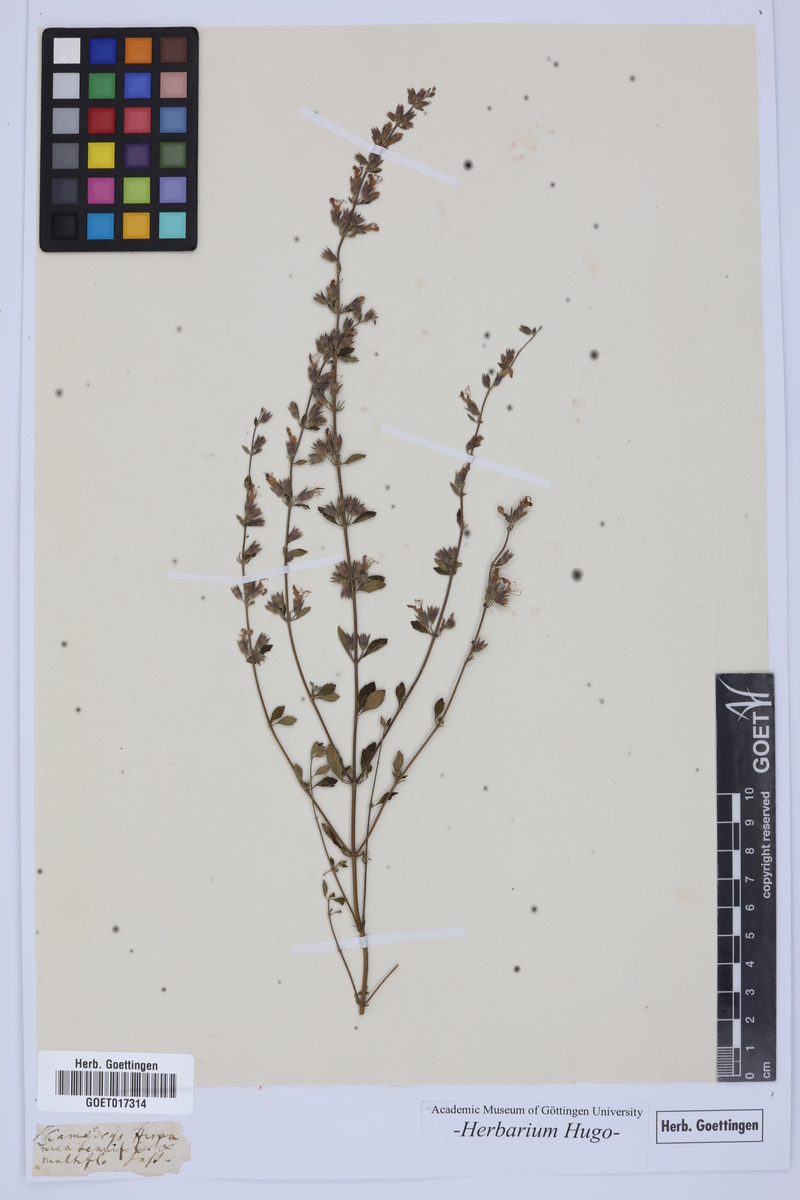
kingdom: Plantae
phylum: Tracheophyta
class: Magnoliopsida
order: Lamiales
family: Lamiaceae
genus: Teucrium
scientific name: Teucrium chamaedrys
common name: Wall germander
